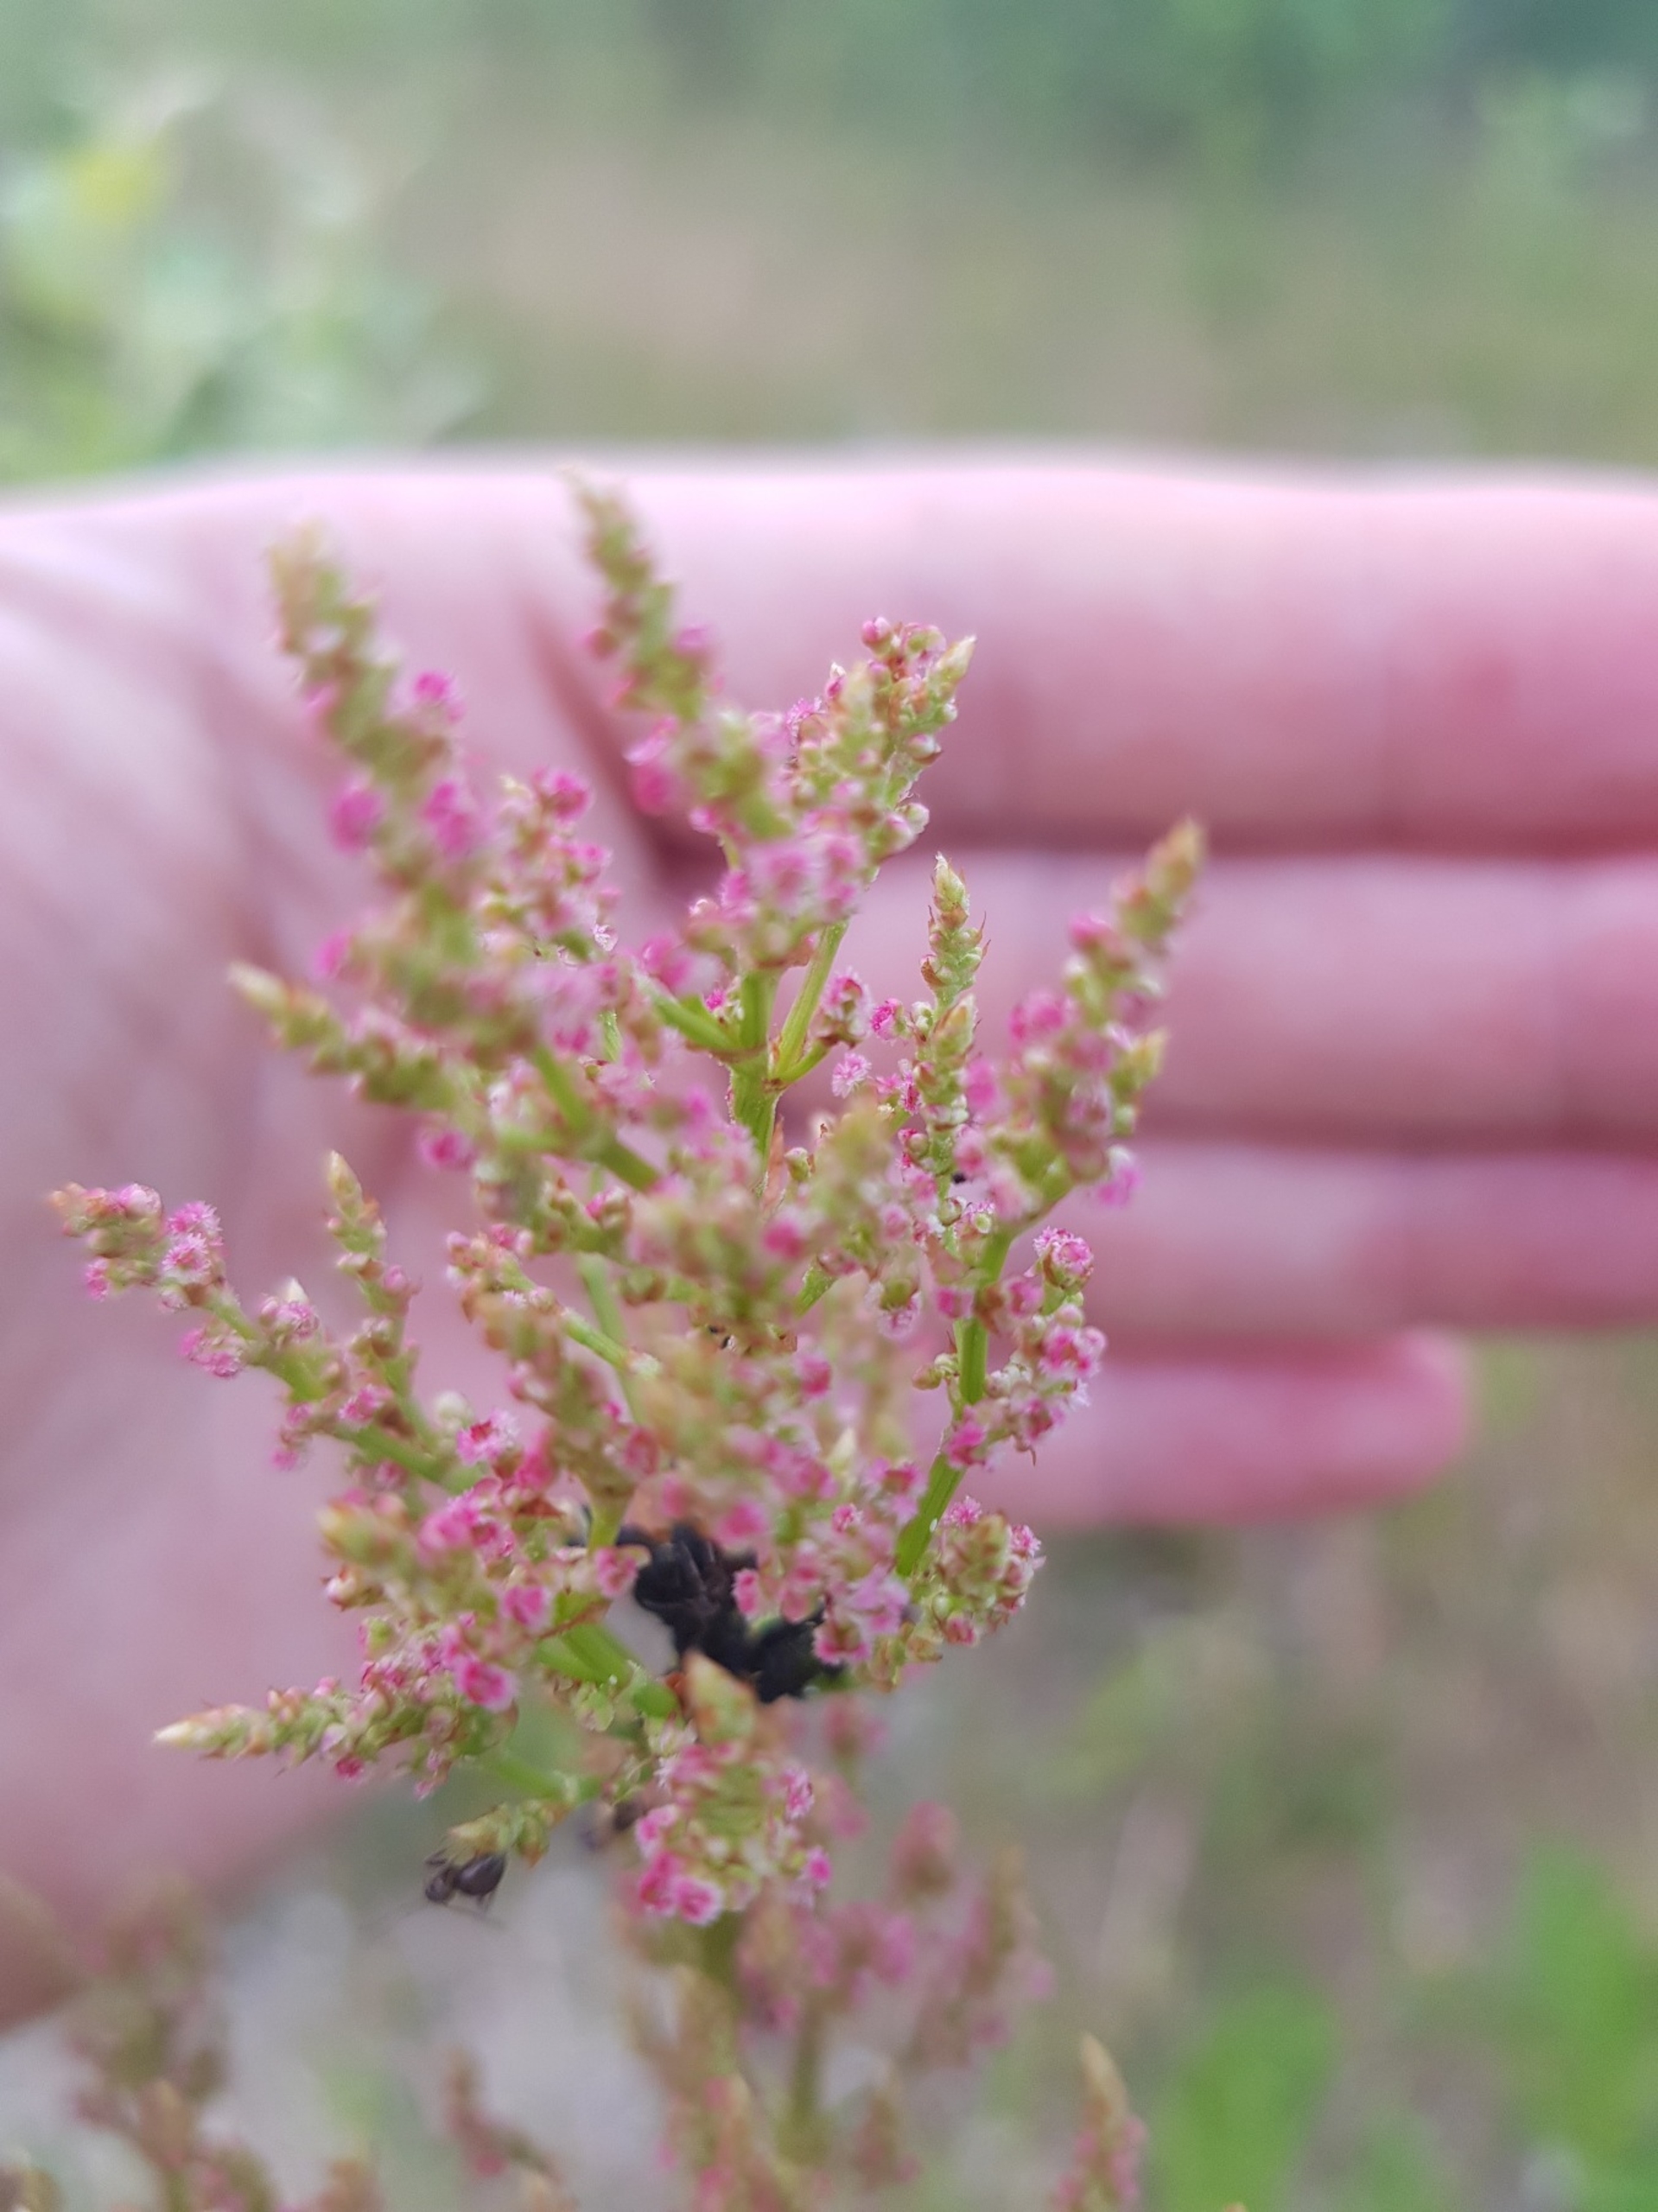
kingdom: Plantae
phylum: Tracheophyta
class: Magnoliopsida
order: Caryophyllales
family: Polygonaceae
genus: Rumex
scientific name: Rumex acetosa
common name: Almindelig syre
